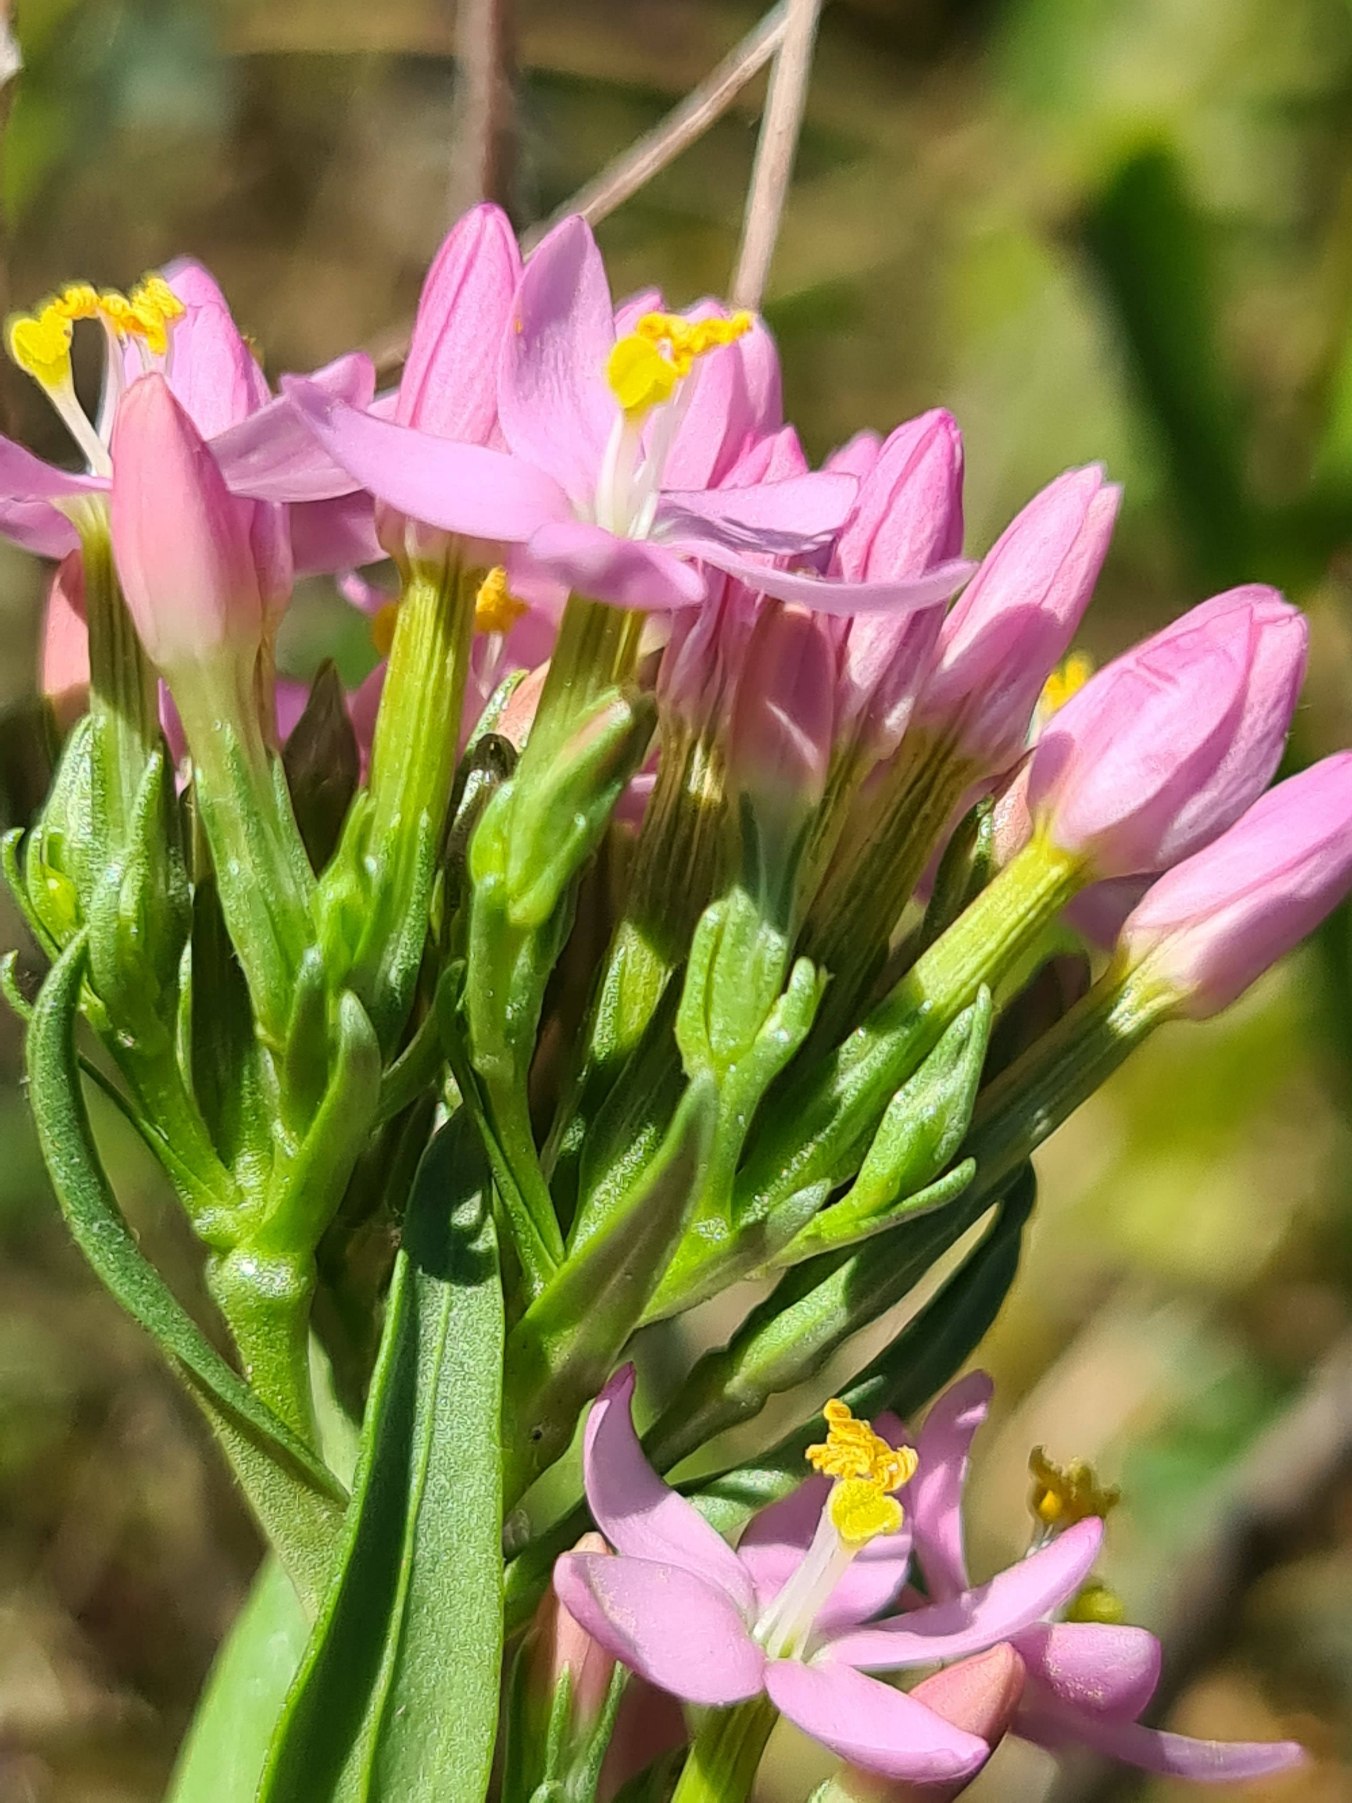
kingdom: Plantae
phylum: Tracheophyta
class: Magnoliopsida
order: Gentianales
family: Gentianaceae
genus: Centaurium
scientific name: Centaurium erythraea
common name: Mark-tusindgylden
